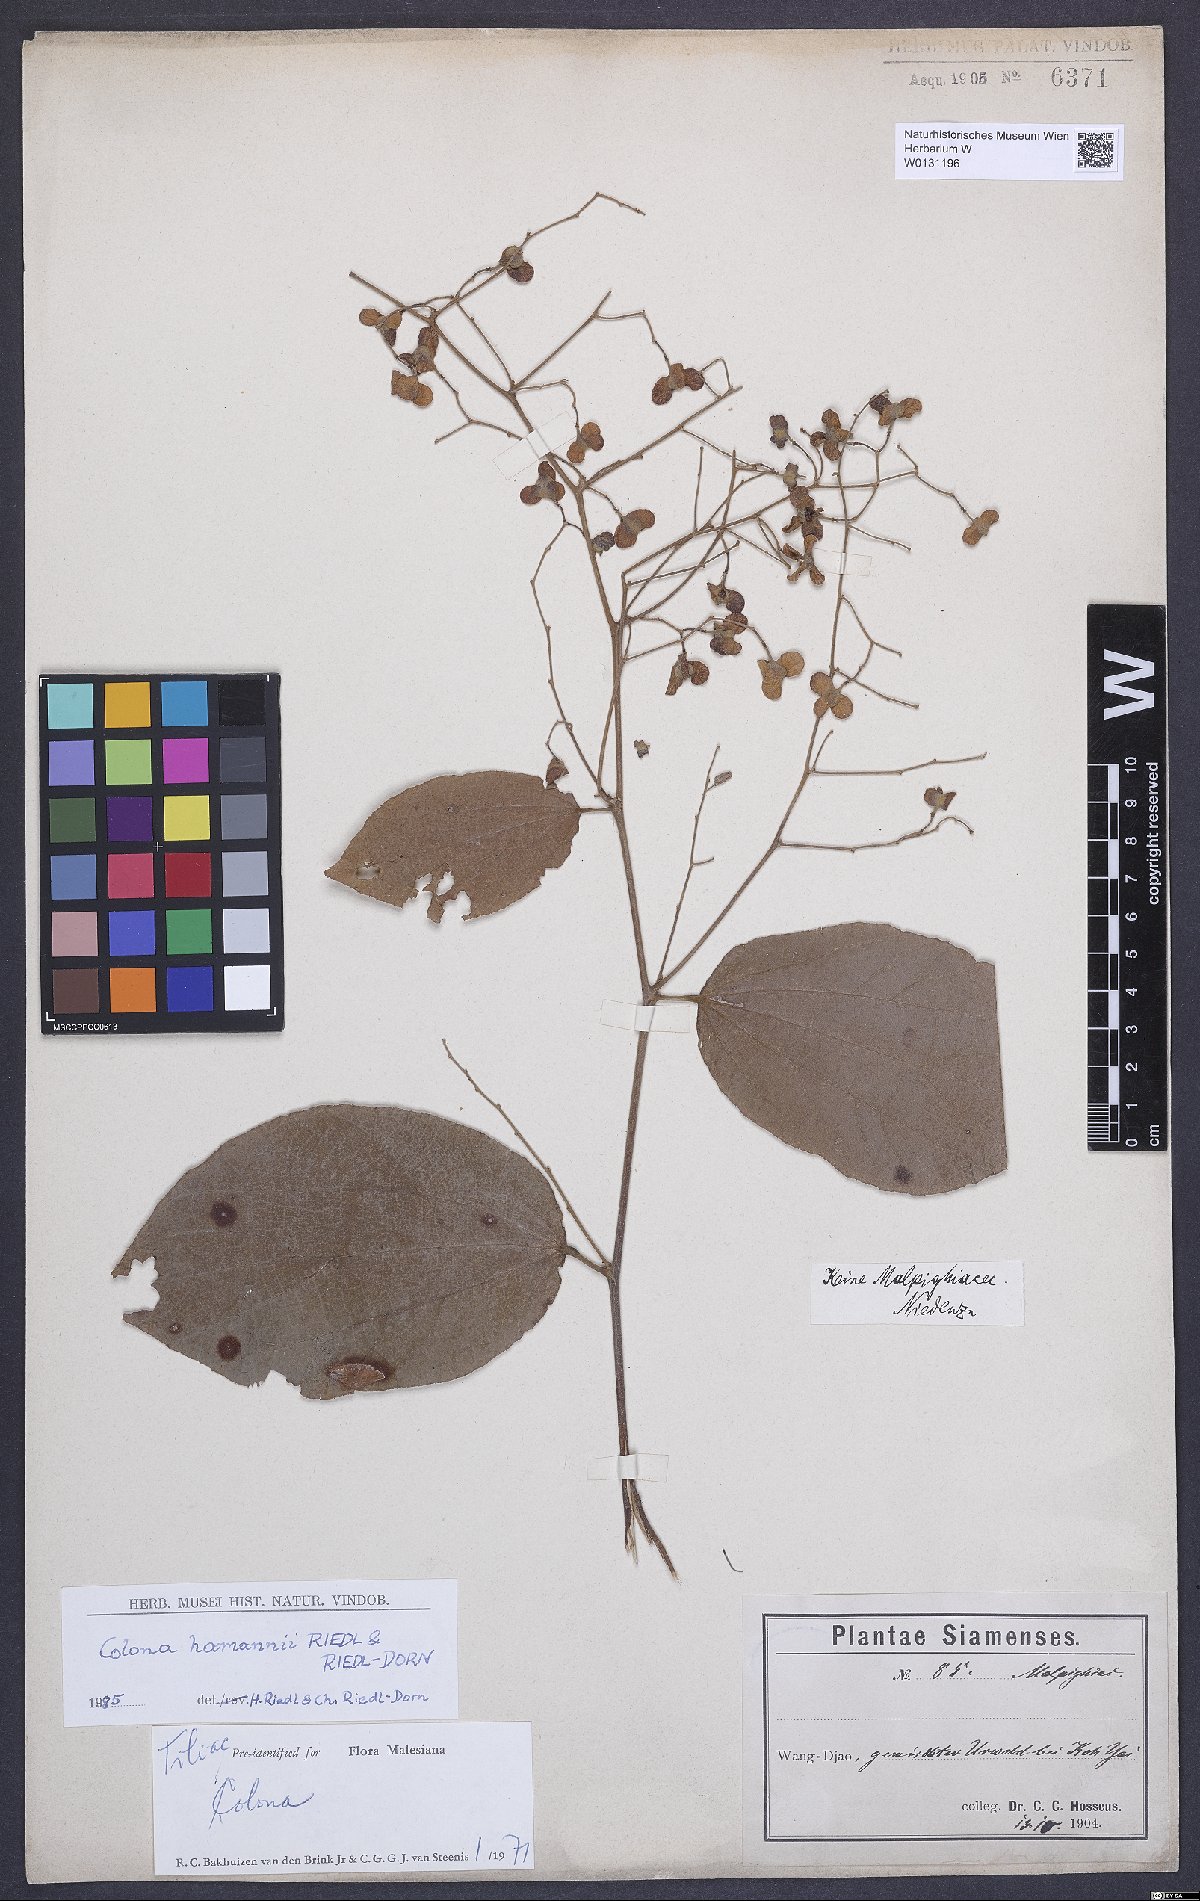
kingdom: Plantae
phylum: Tracheophyta
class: Magnoliopsida
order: Malvales
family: Malvaceae
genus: Colona
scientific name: Colona floribunda
